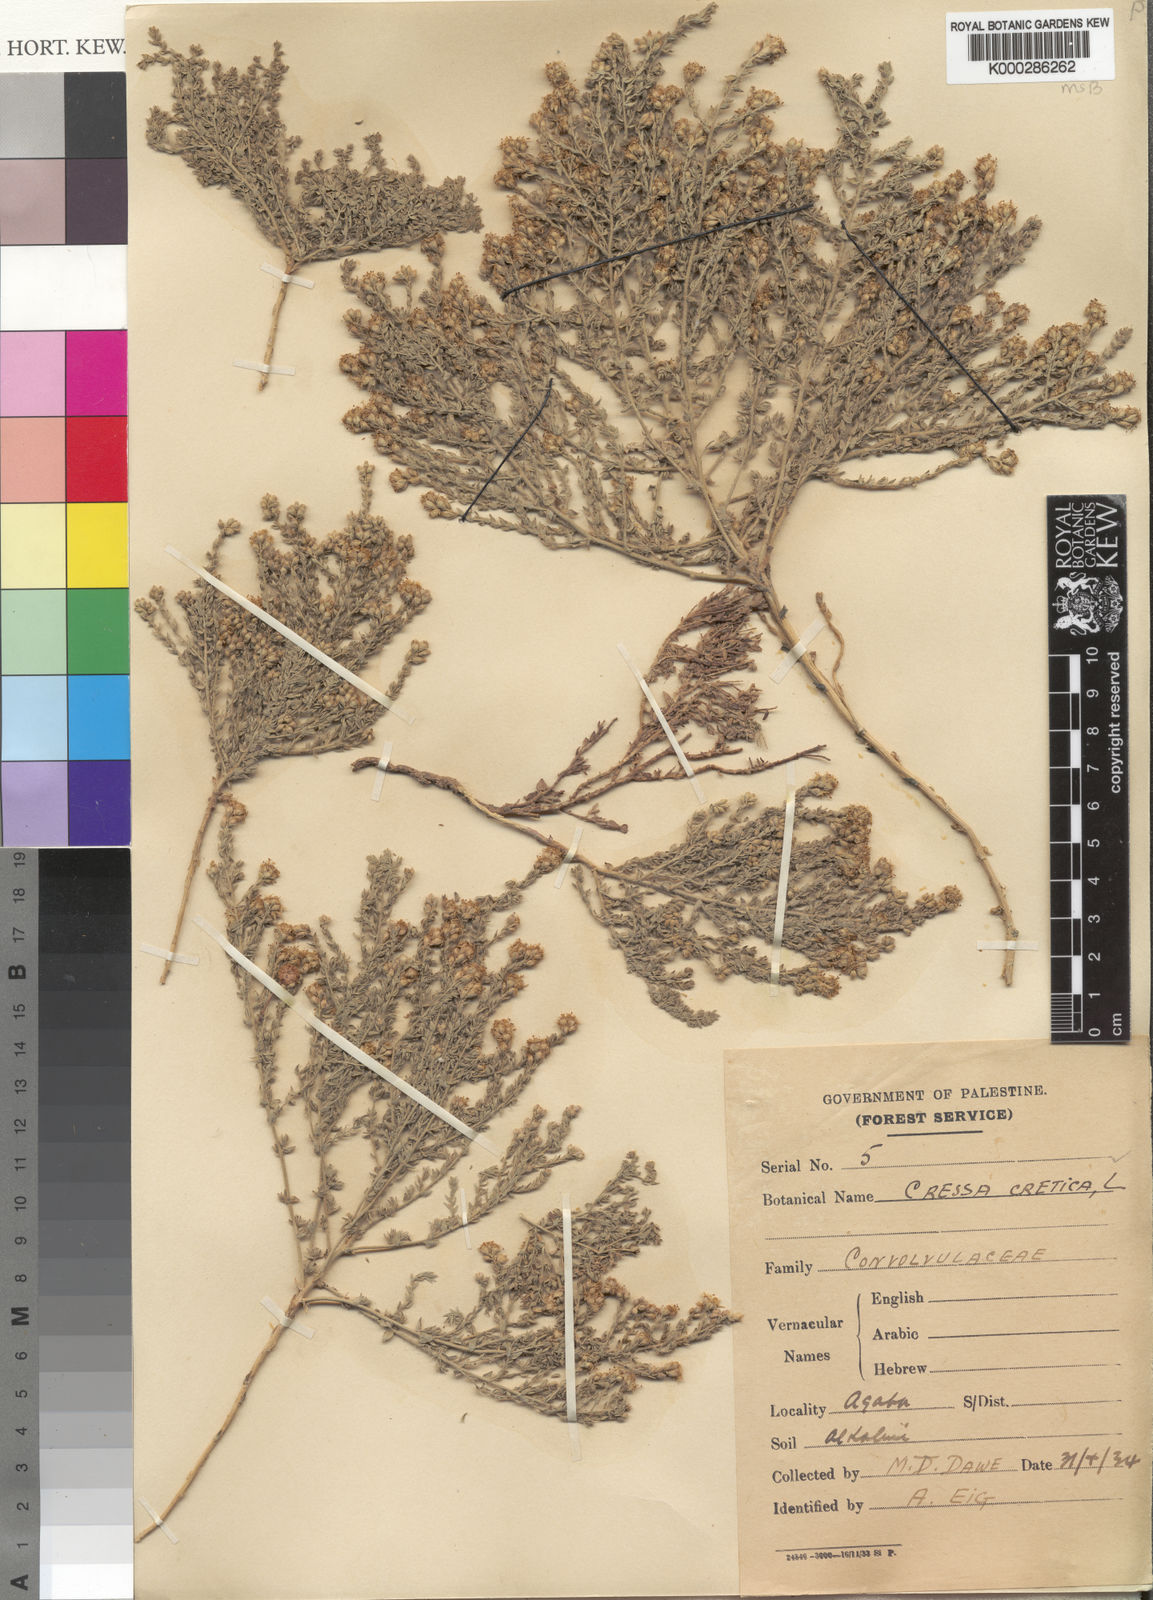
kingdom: Plantae
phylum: Tracheophyta
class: Magnoliopsida
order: Solanales
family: Convolvulaceae
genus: Cressa
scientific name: Cressa cretica
